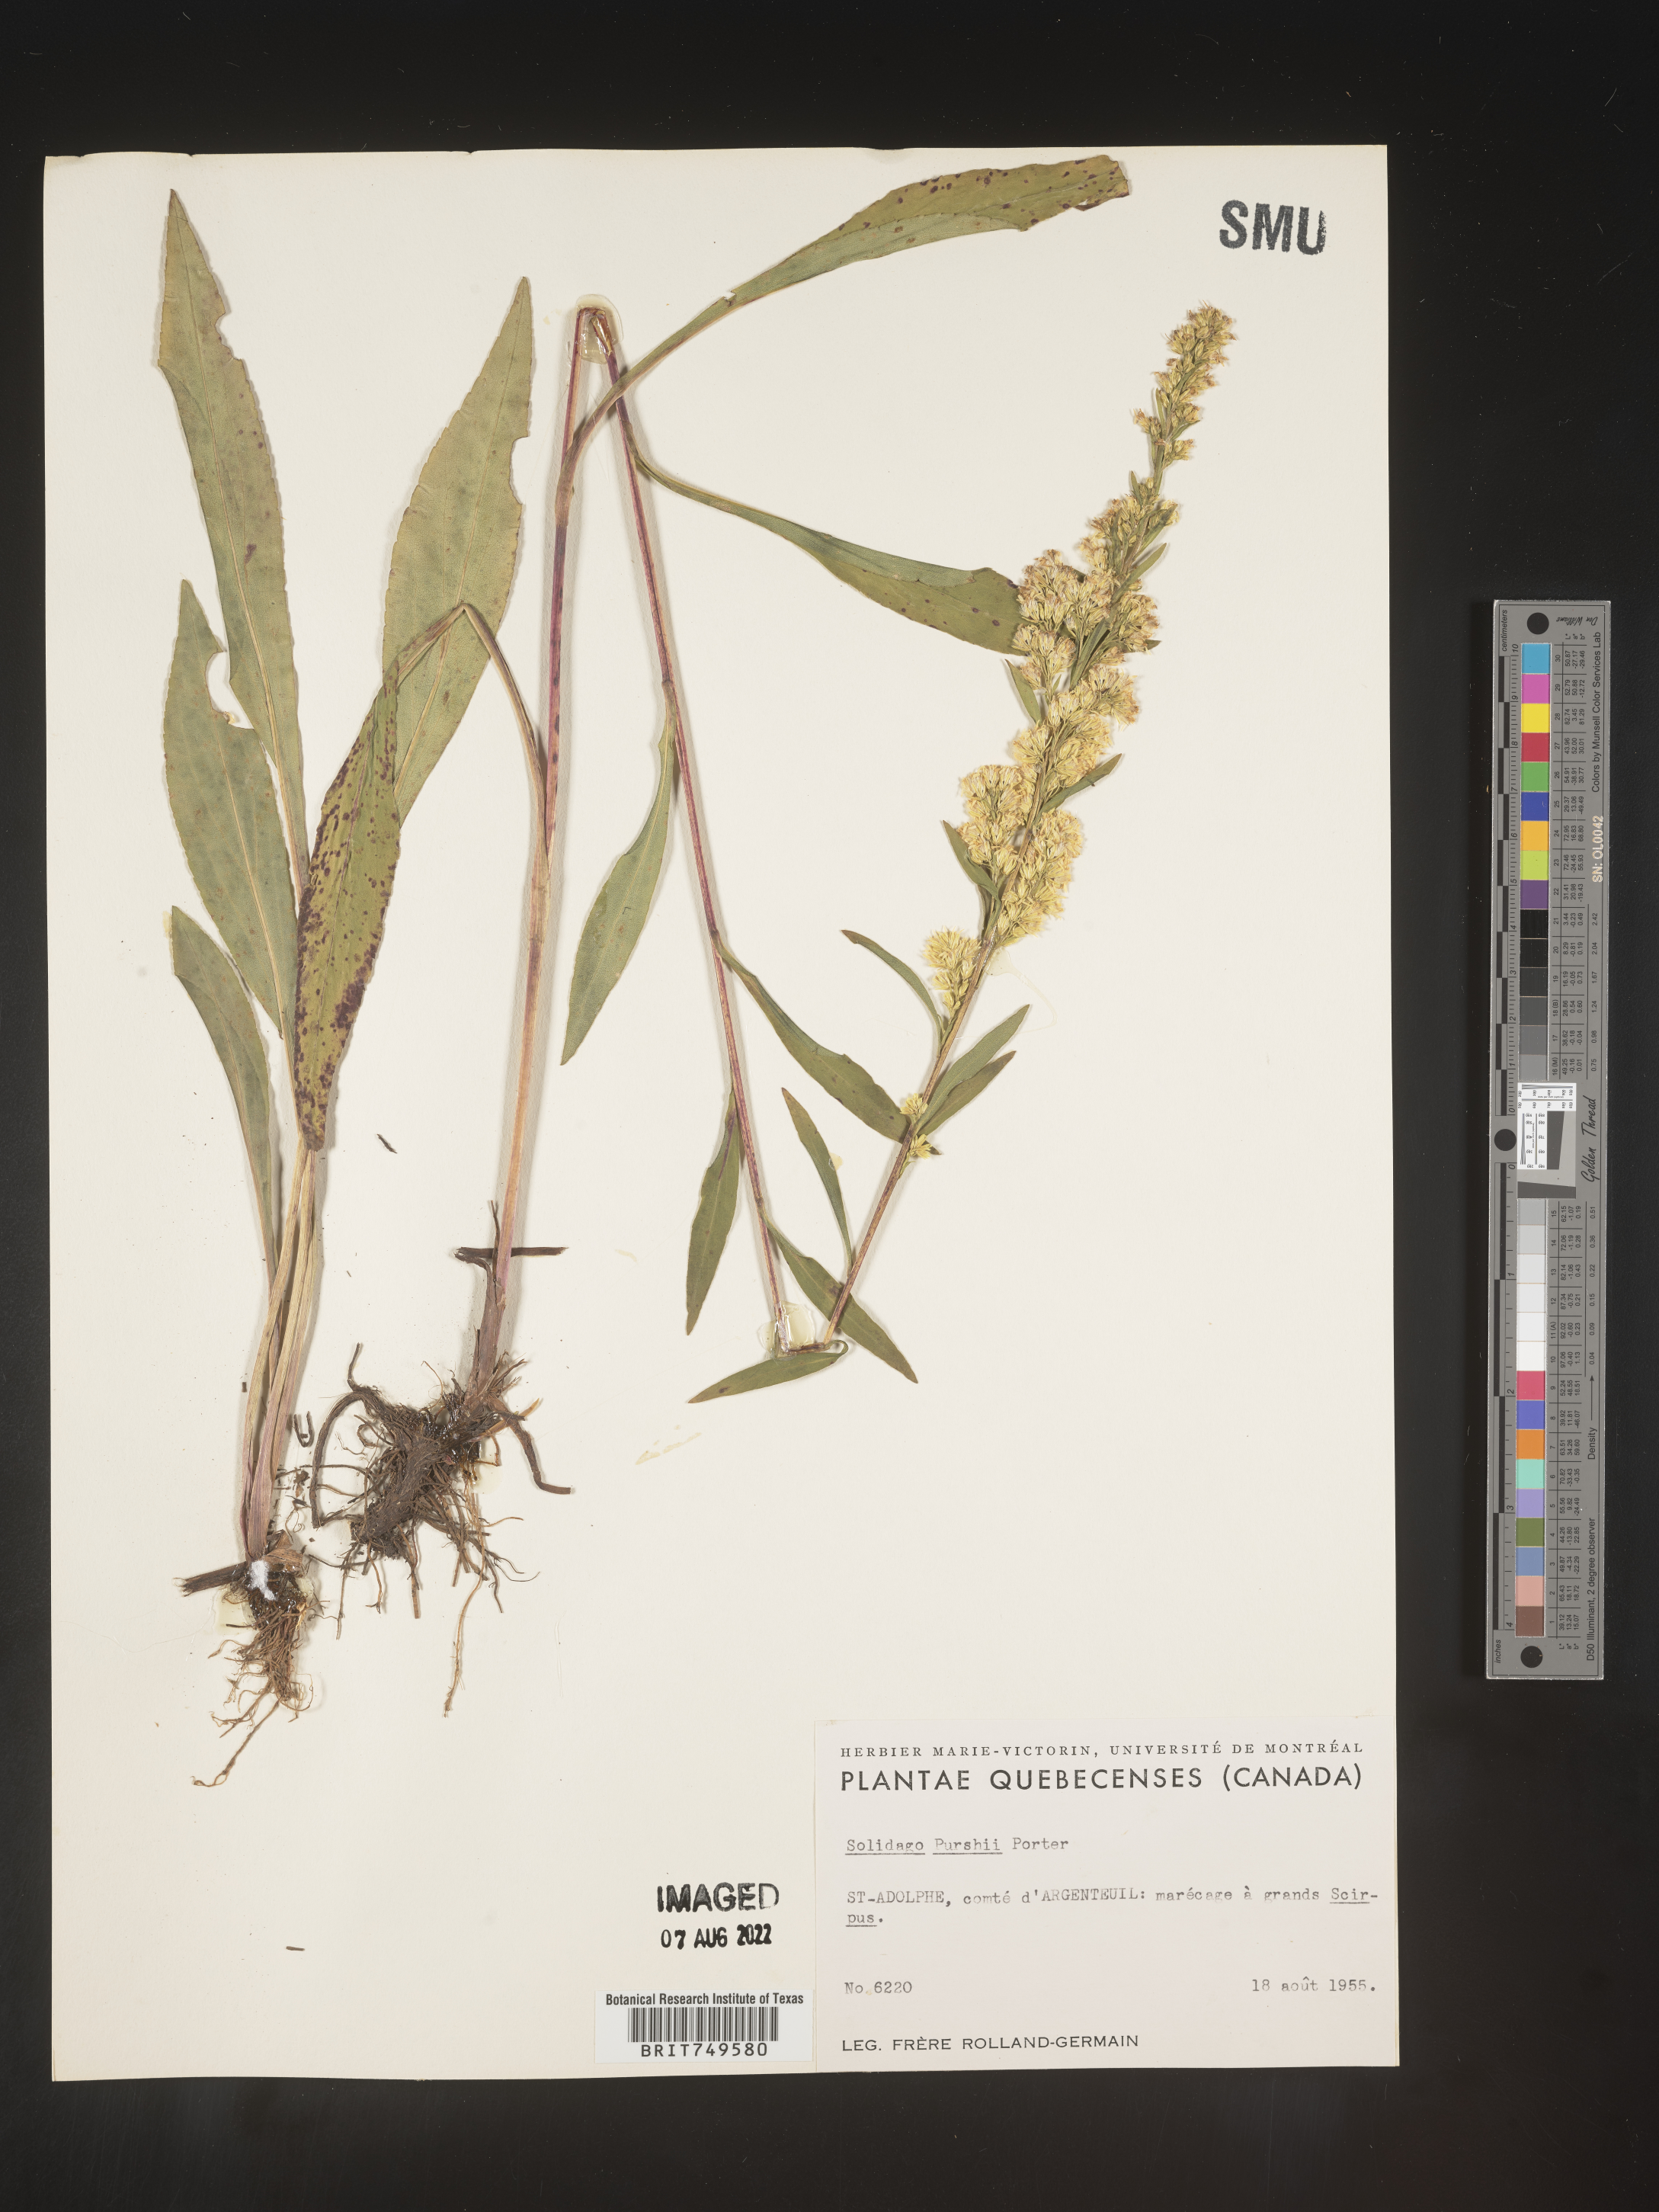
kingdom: Plantae
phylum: Tracheophyta
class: Magnoliopsida
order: Asterales
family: Asteraceae
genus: Solidago
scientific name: Solidago uliginosa
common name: Bog goldenrod
